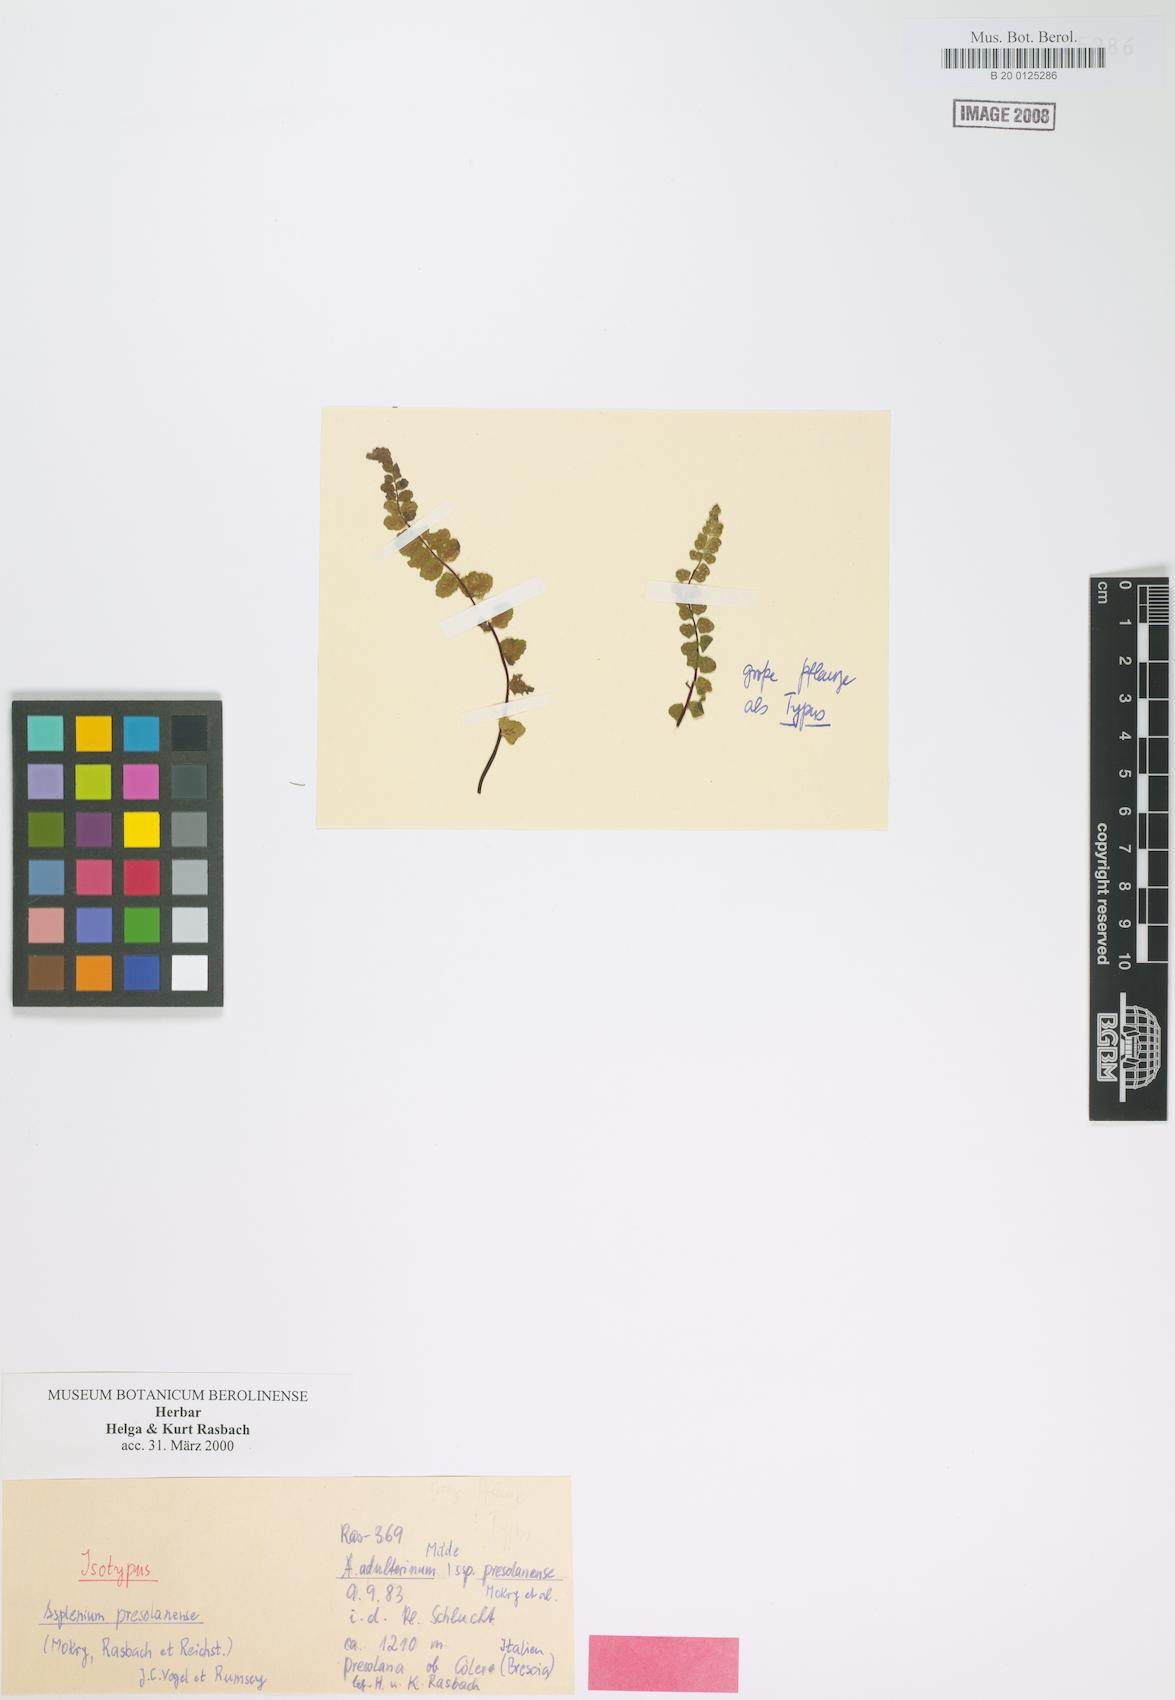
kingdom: Plantae
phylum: Tracheophyta
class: Polypodiopsida
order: Polypodiales
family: Aspleniaceae
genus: Asplenium
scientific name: Asplenium presolanense
